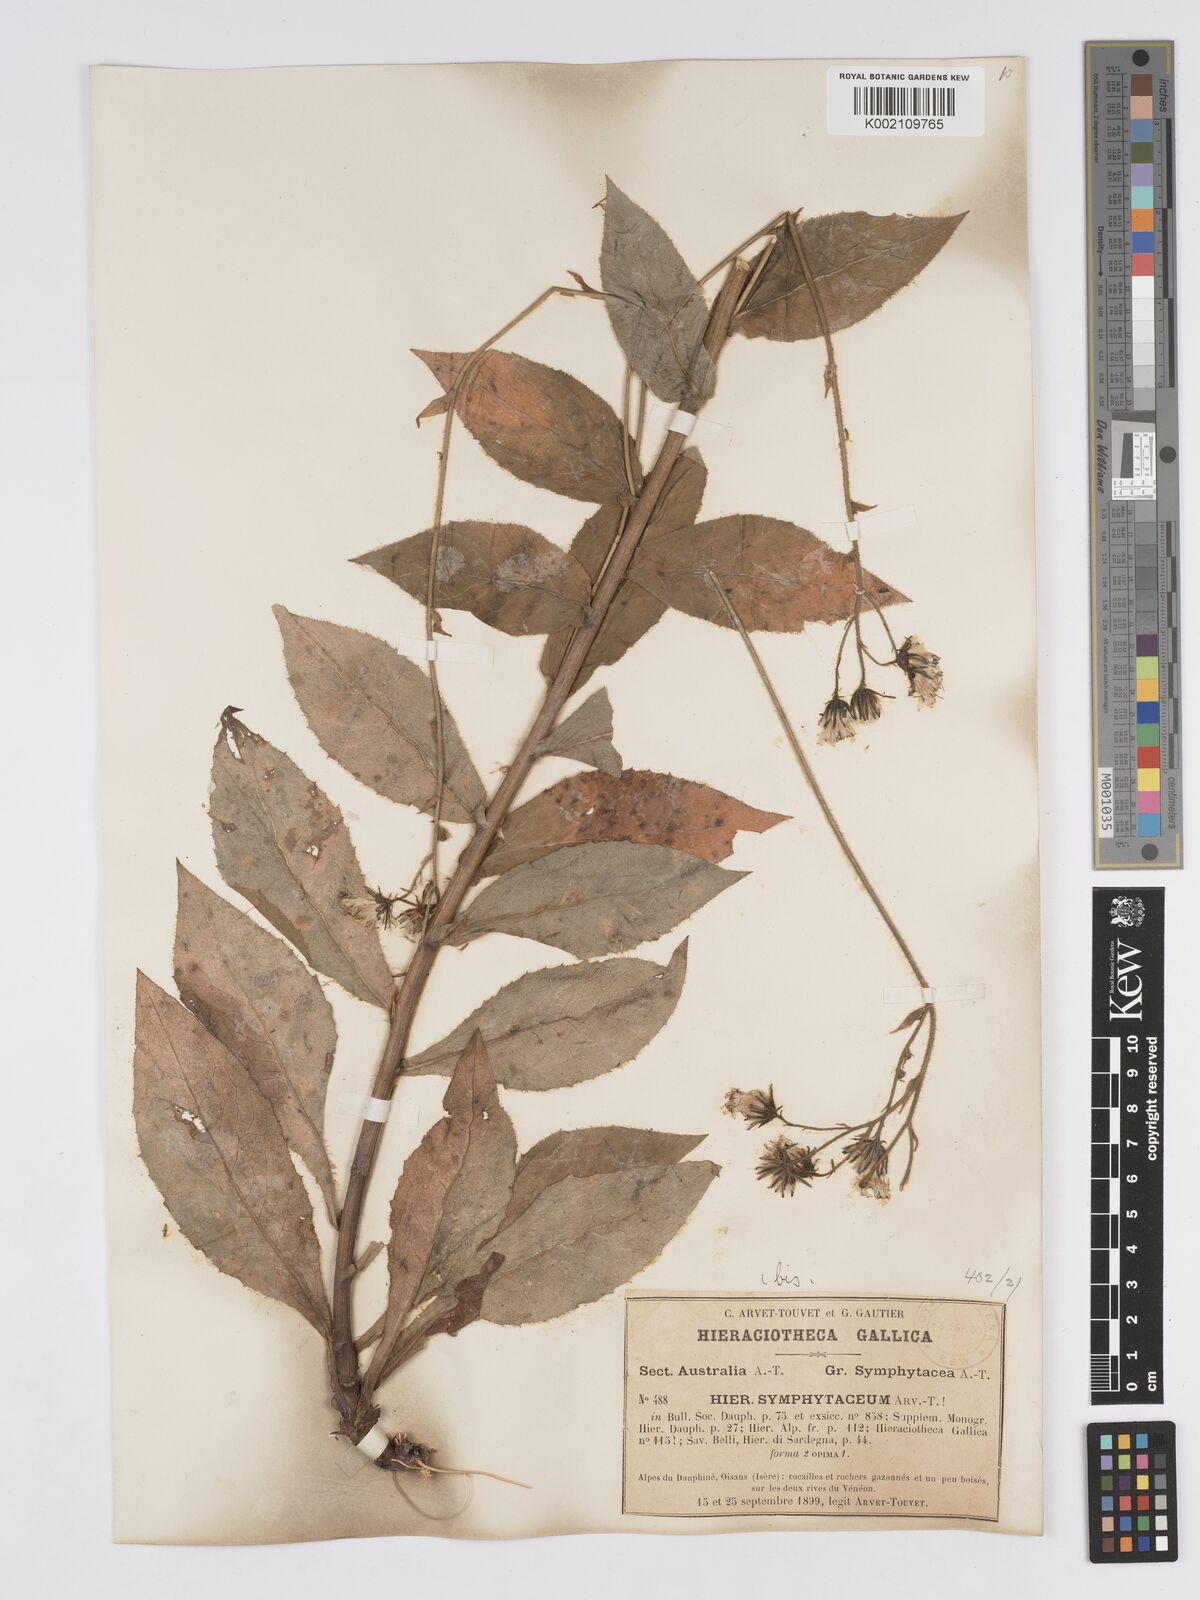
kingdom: Plantae
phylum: Tracheophyta
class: Magnoliopsida
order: Asterales
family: Asteraceae
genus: Hieracium
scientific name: Hieracium symphytaceum
